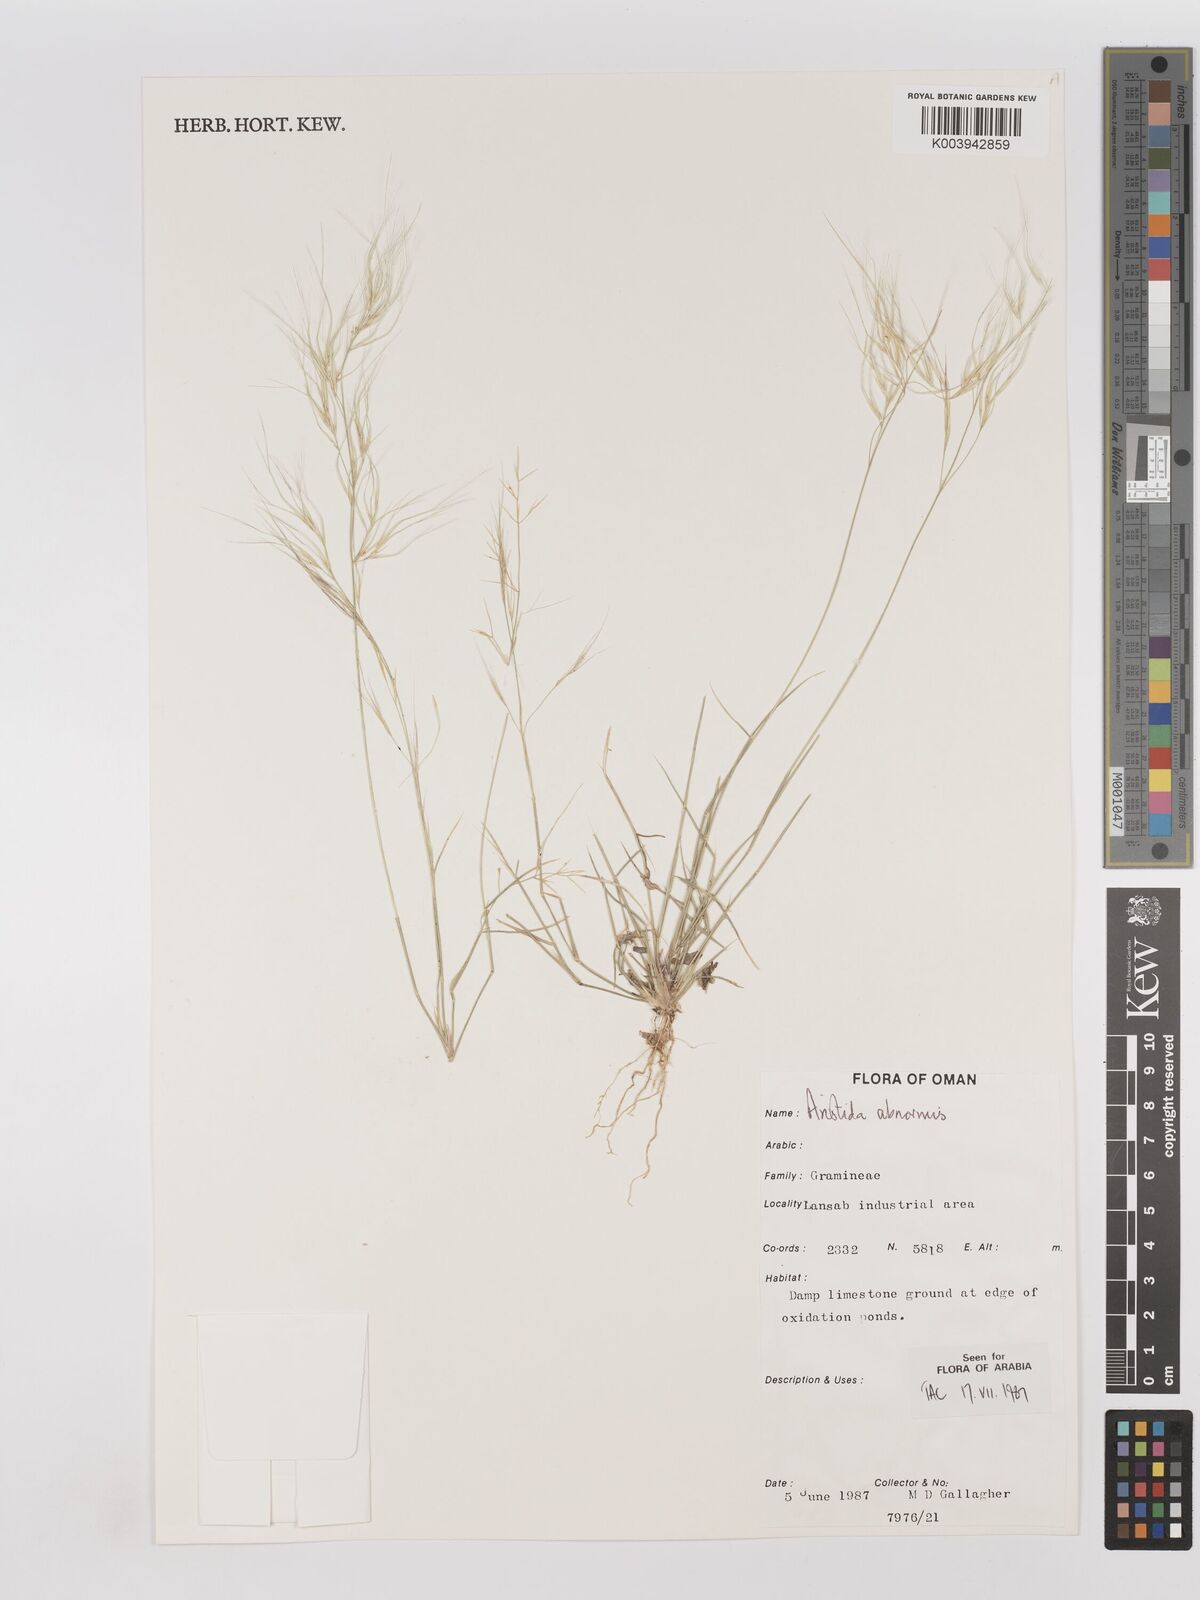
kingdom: Plantae
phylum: Tracheophyta
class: Liliopsida
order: Poales
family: Poaceae
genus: Aristida
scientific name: Aristida abnormis
